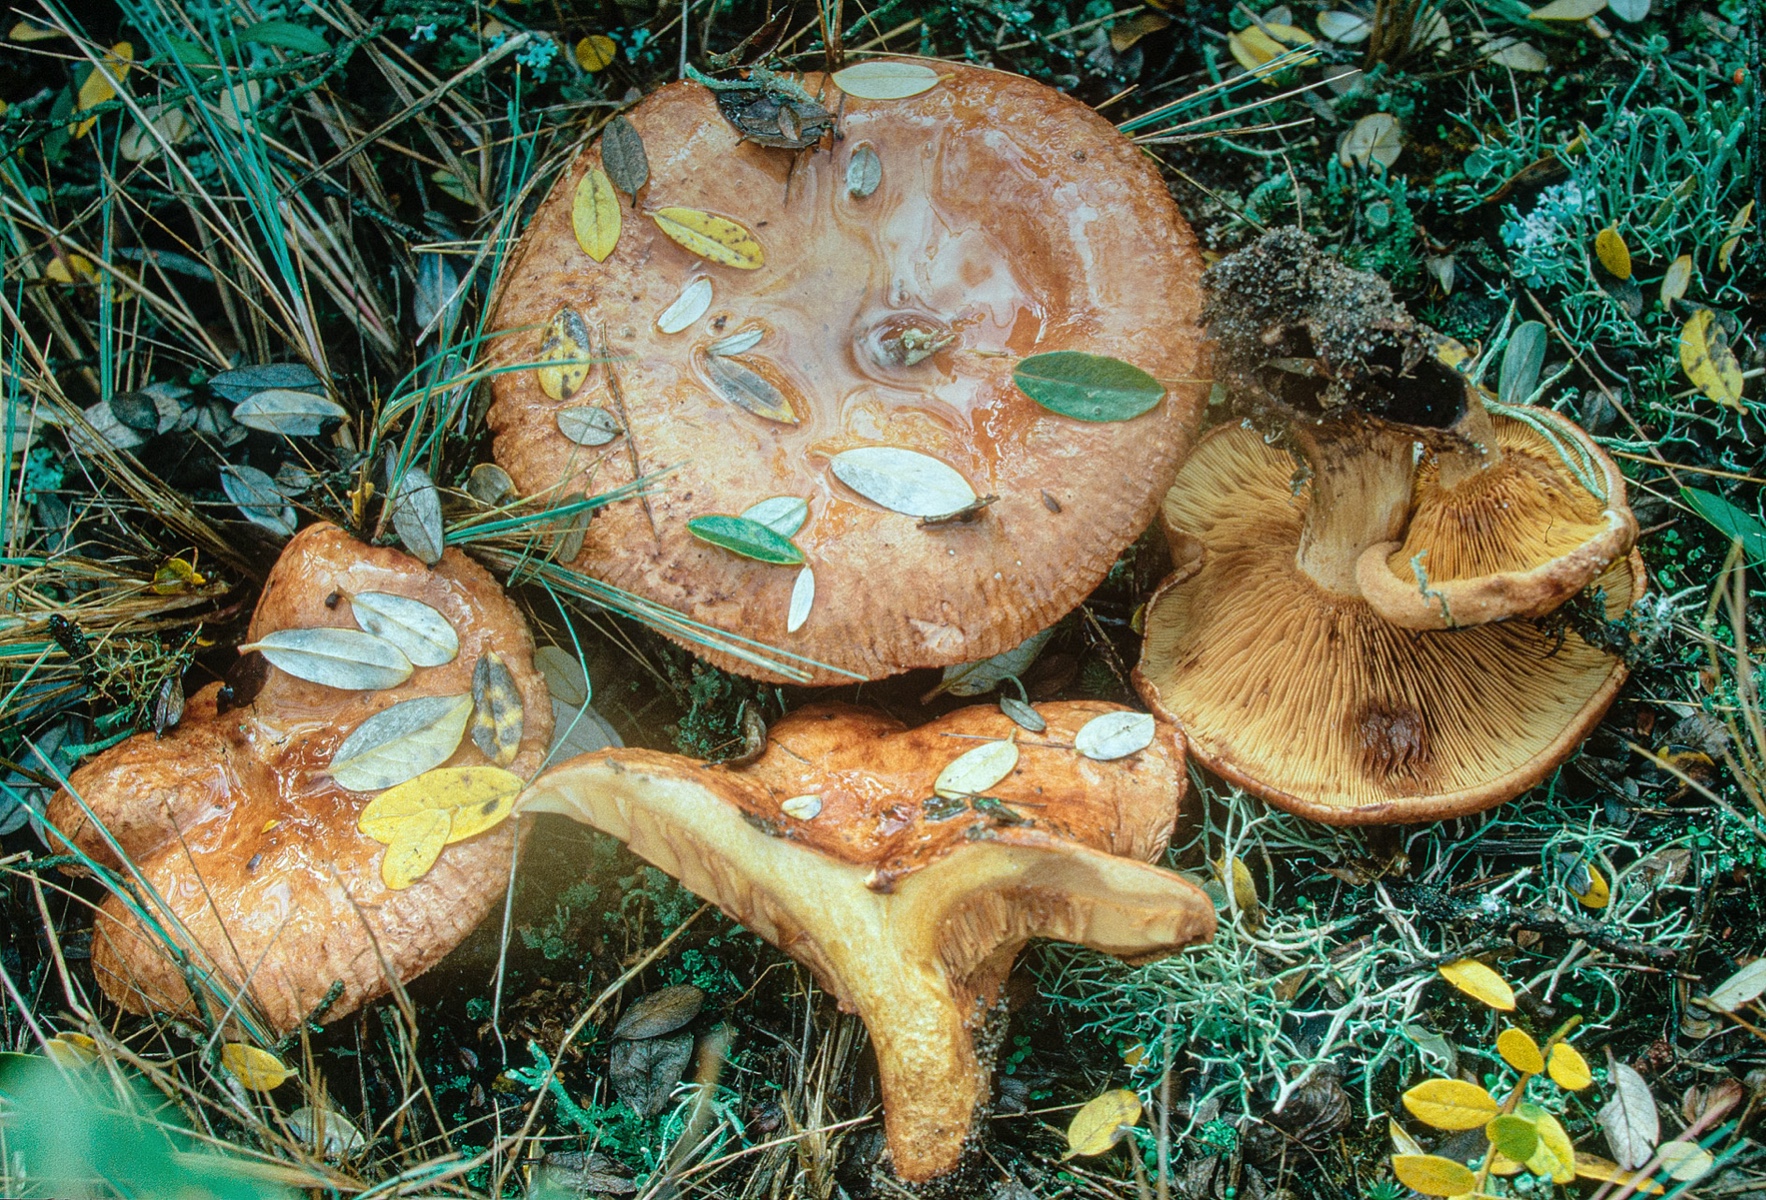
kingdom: Fungi
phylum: Basidiomycota
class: Agaricomycetes
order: Boletales
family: Paxillaceae
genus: Paxillus
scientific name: Paxillus ammoniavirescens
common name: olivensporet netbladhat
